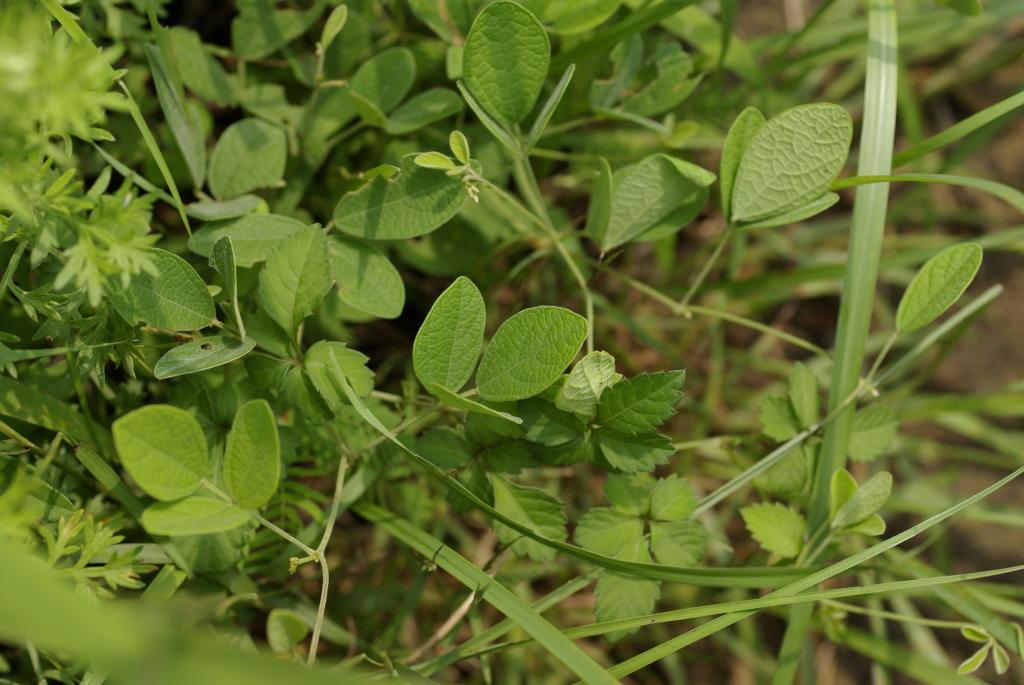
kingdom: Plantae
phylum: Tracheophyta
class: Magnoliopsida
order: Fabales
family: Fabaceae
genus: Cajanus
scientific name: Cajanus scarabaeoides
